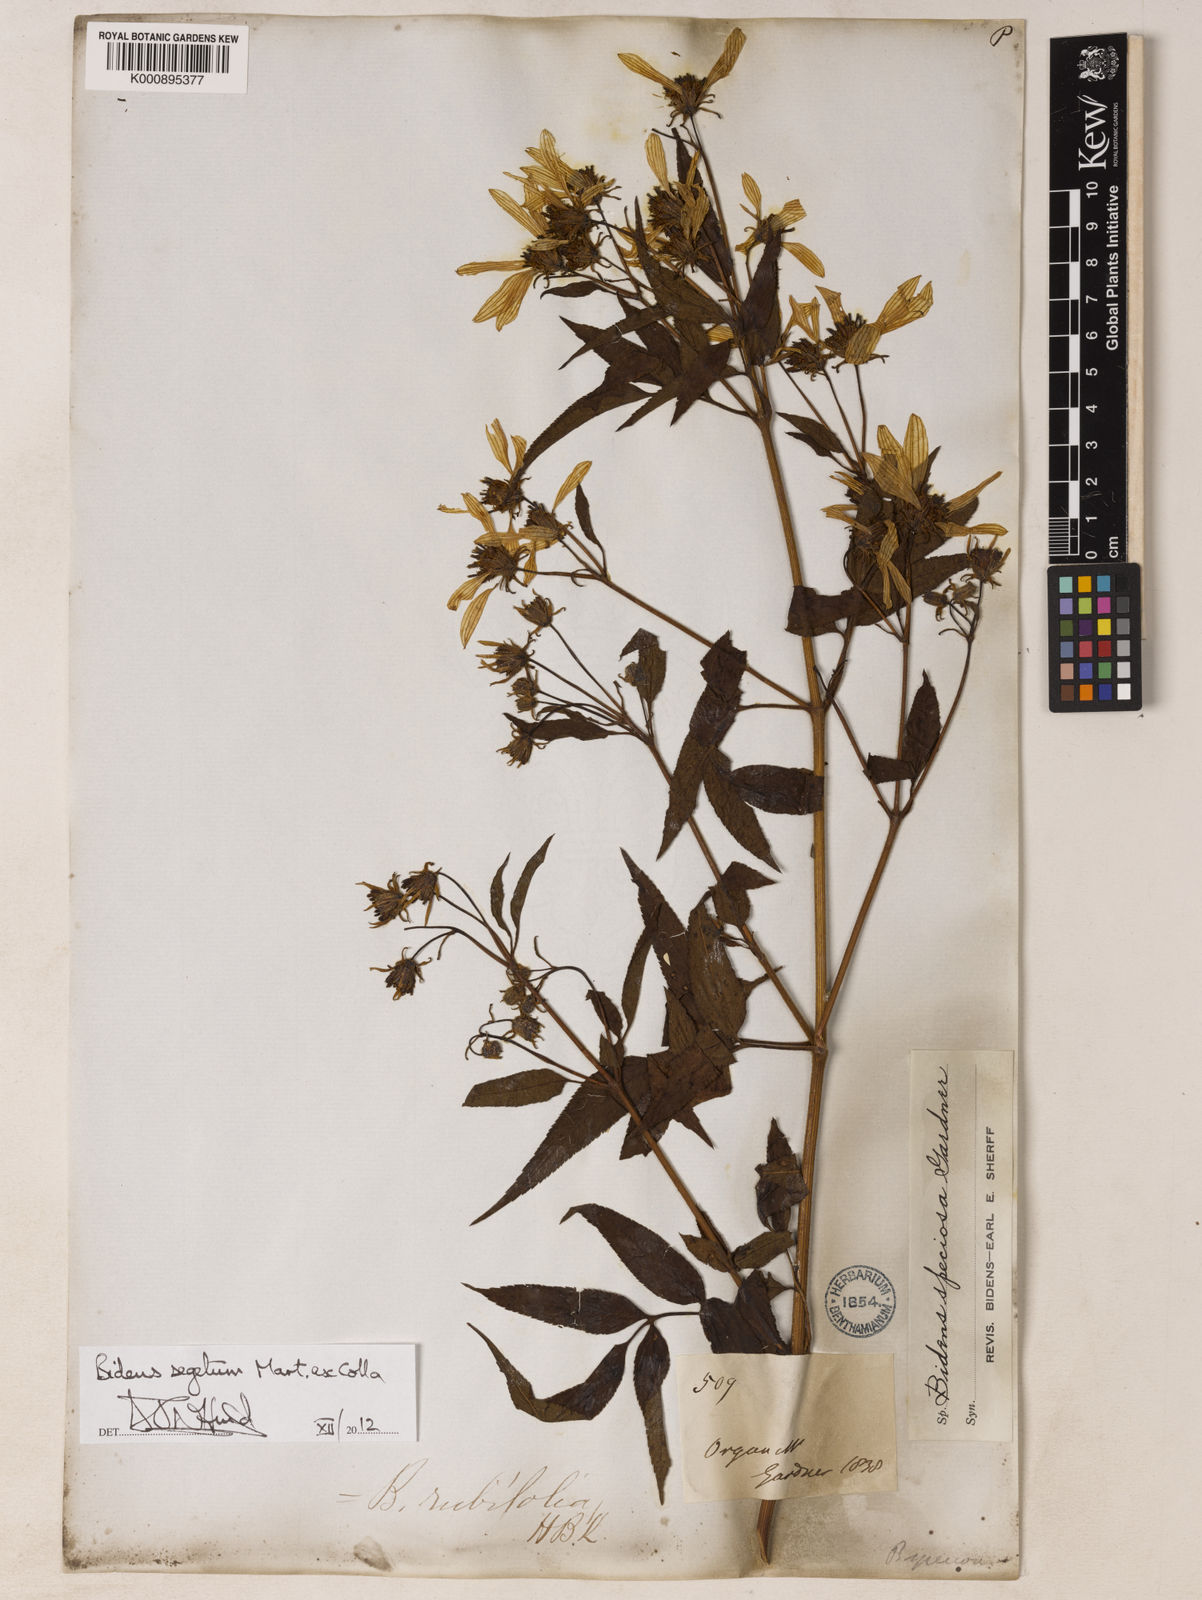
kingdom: Plantae
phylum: Tracheophyta
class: Magnoliopsida
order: Asterales
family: Asteraceae
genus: Bidens
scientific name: Bidens segetum
